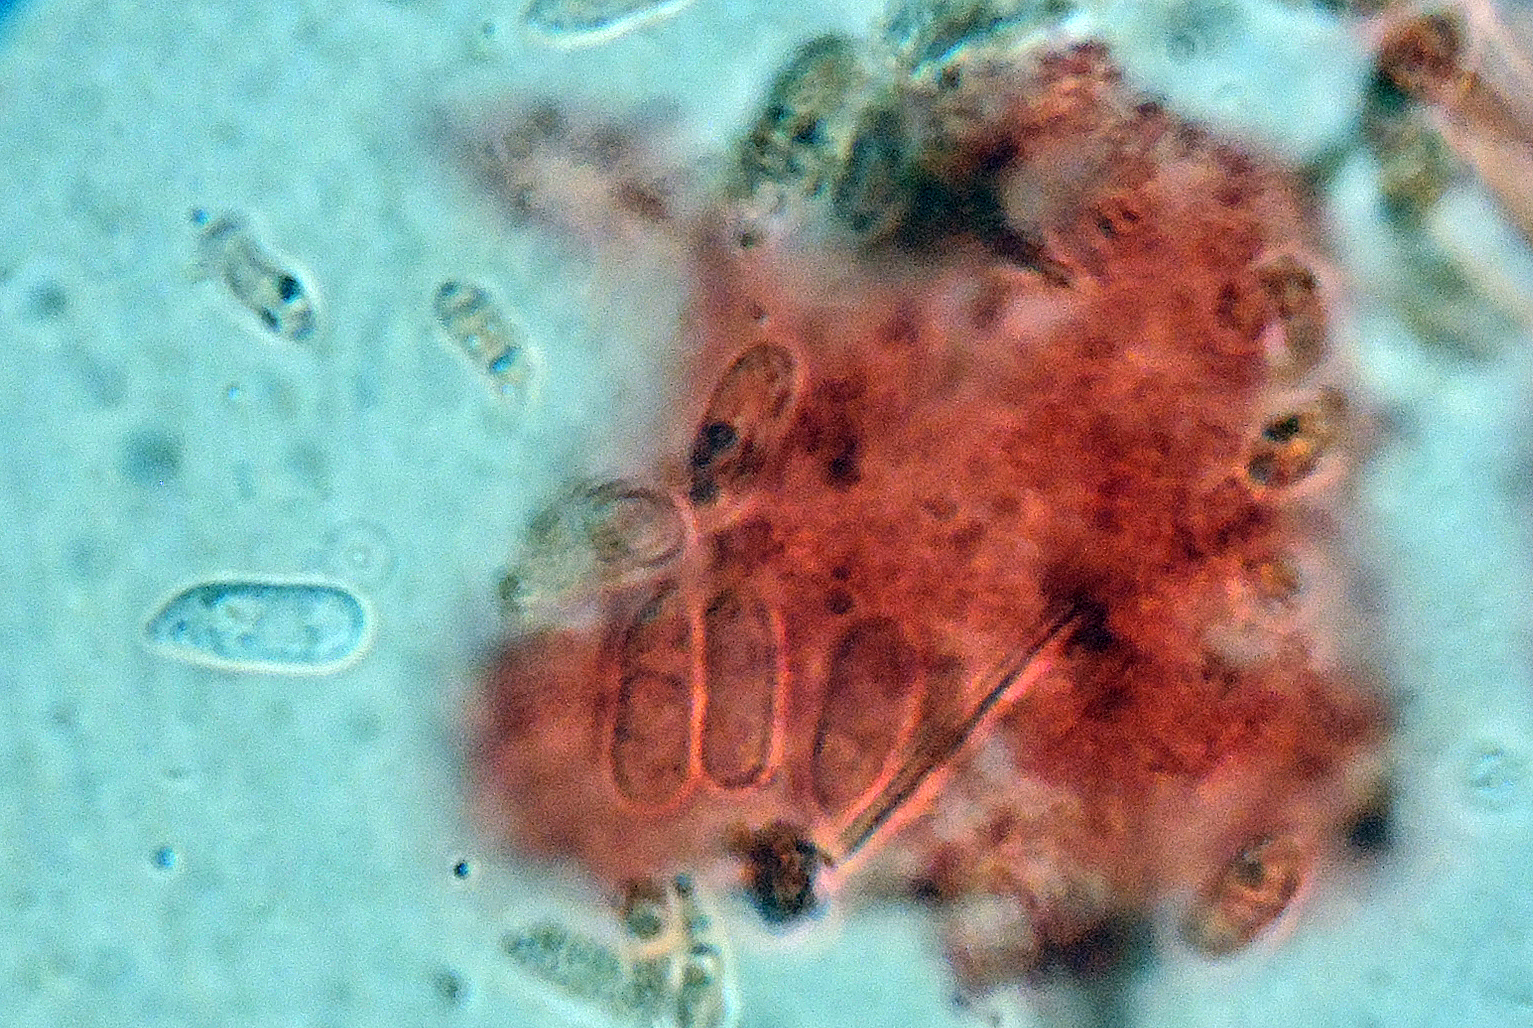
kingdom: Fungi
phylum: Basidiomycota
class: Agaricomycetes
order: Agaricales
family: Mycenaceae
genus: Mycena
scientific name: Mycena mucor
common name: frynseskivet huesvamp
